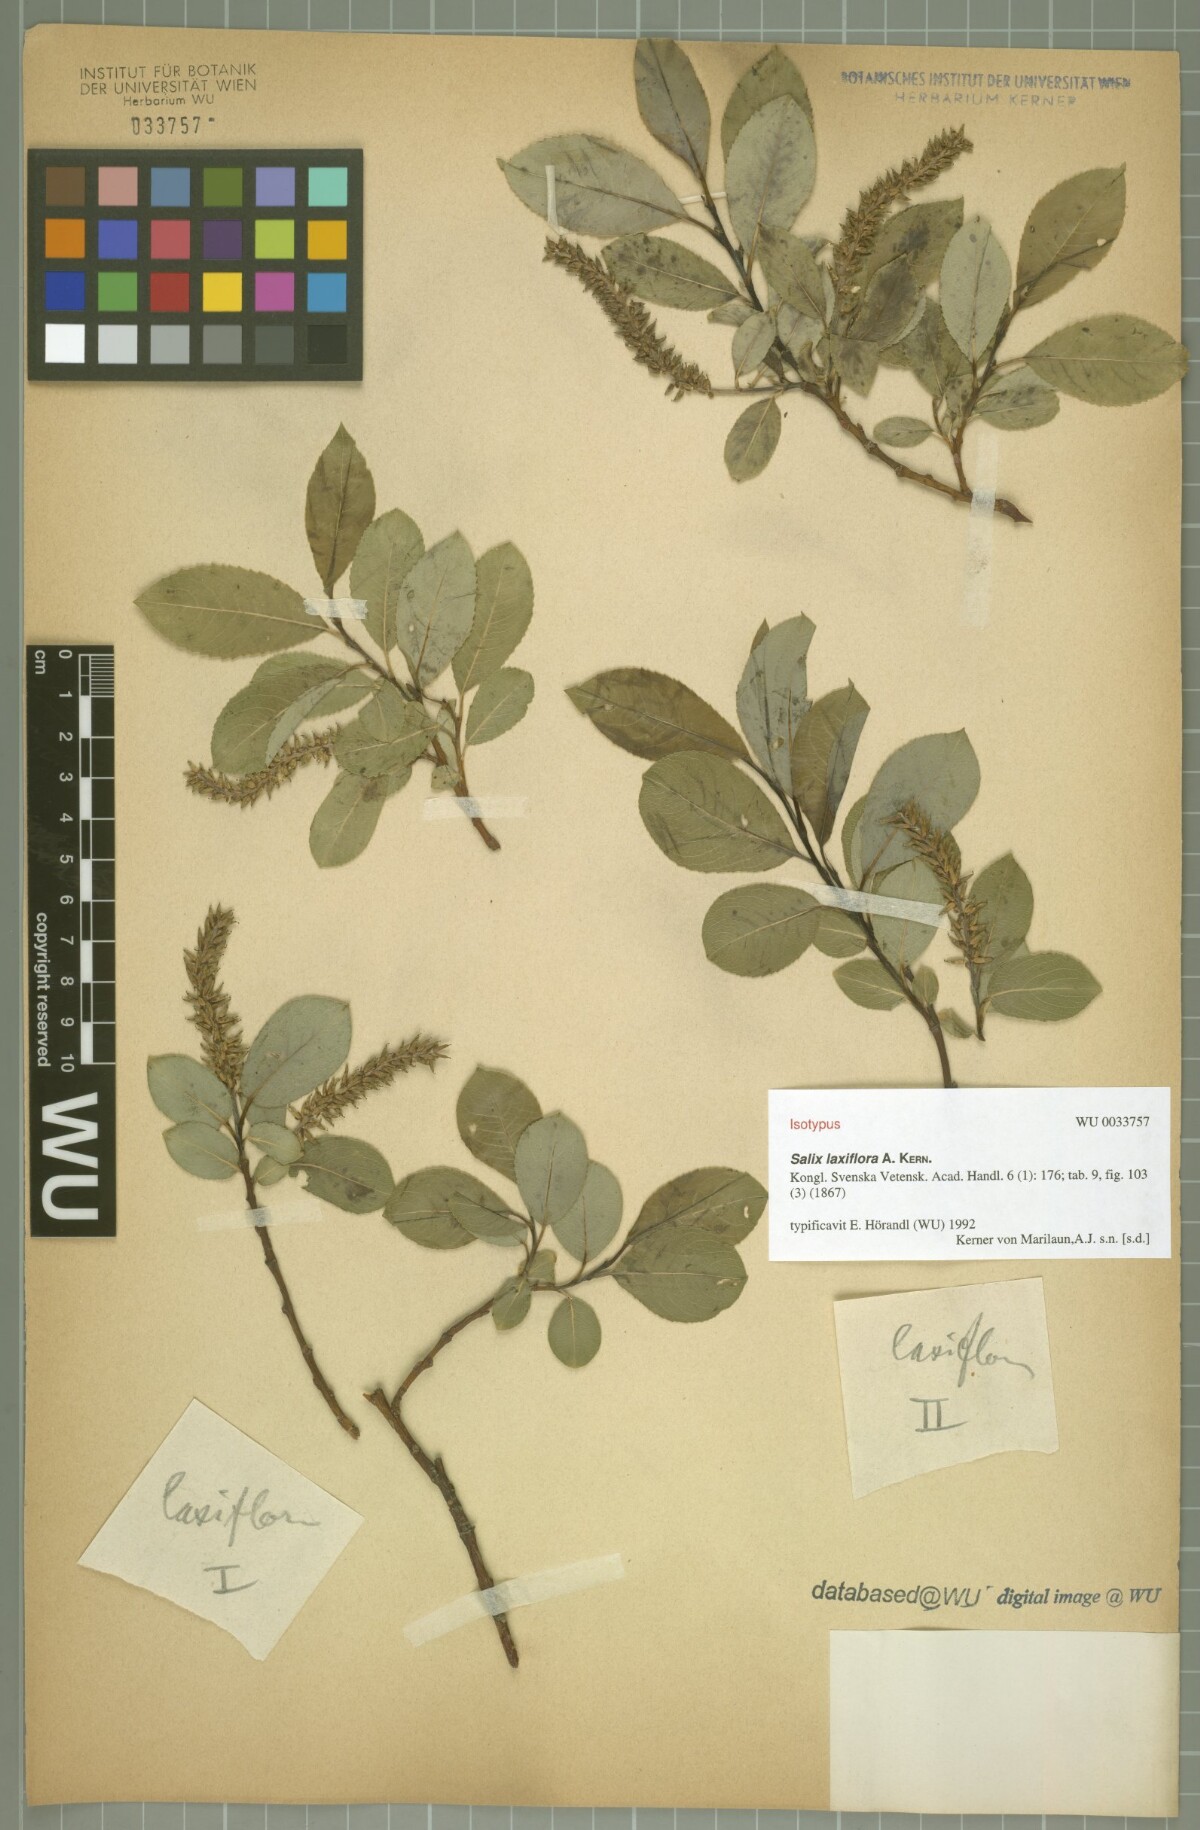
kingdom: Plantae
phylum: Tracheophyta
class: Magnoliopsida
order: Malpighiales
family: Salicaceae
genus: Salix
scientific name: Salix glabra
